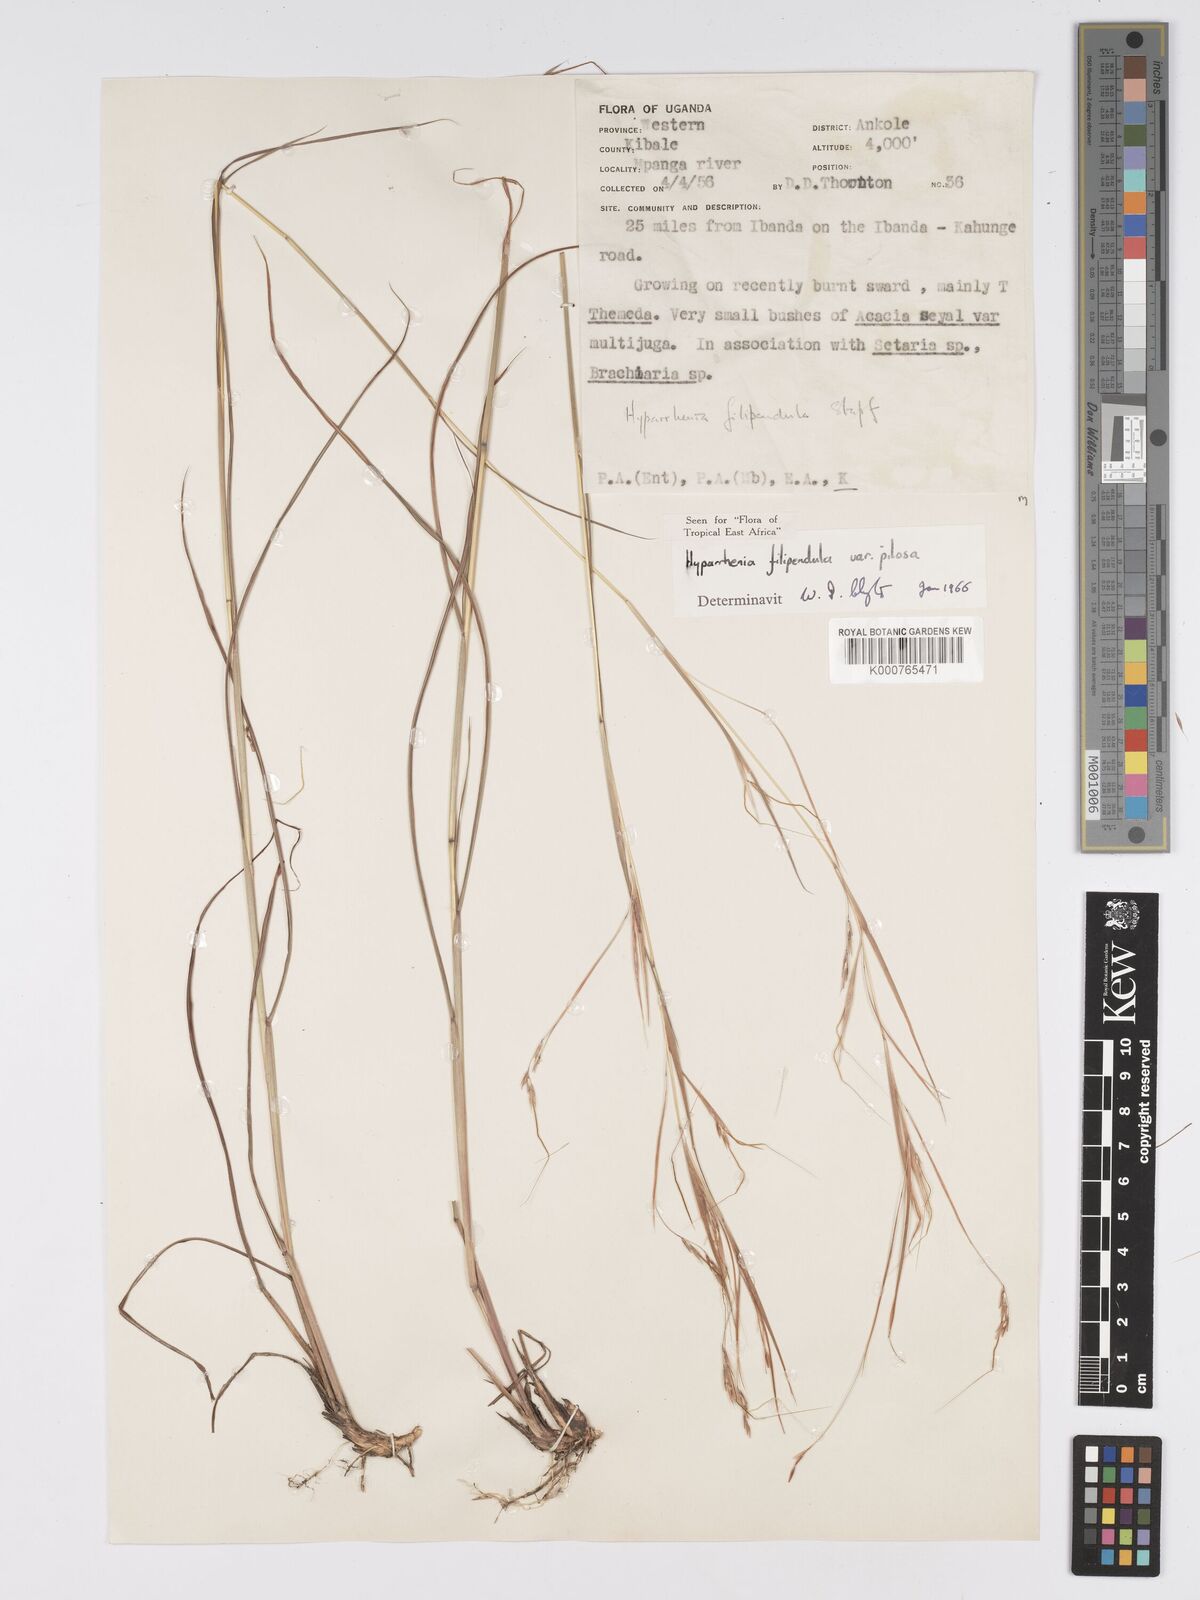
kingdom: Plantae
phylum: Tracheophyta
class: Liliopsida
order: Poales
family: Poaceae
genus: Hyparrhenia
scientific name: Hyparrhenia filipendula
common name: Tambookie grass
